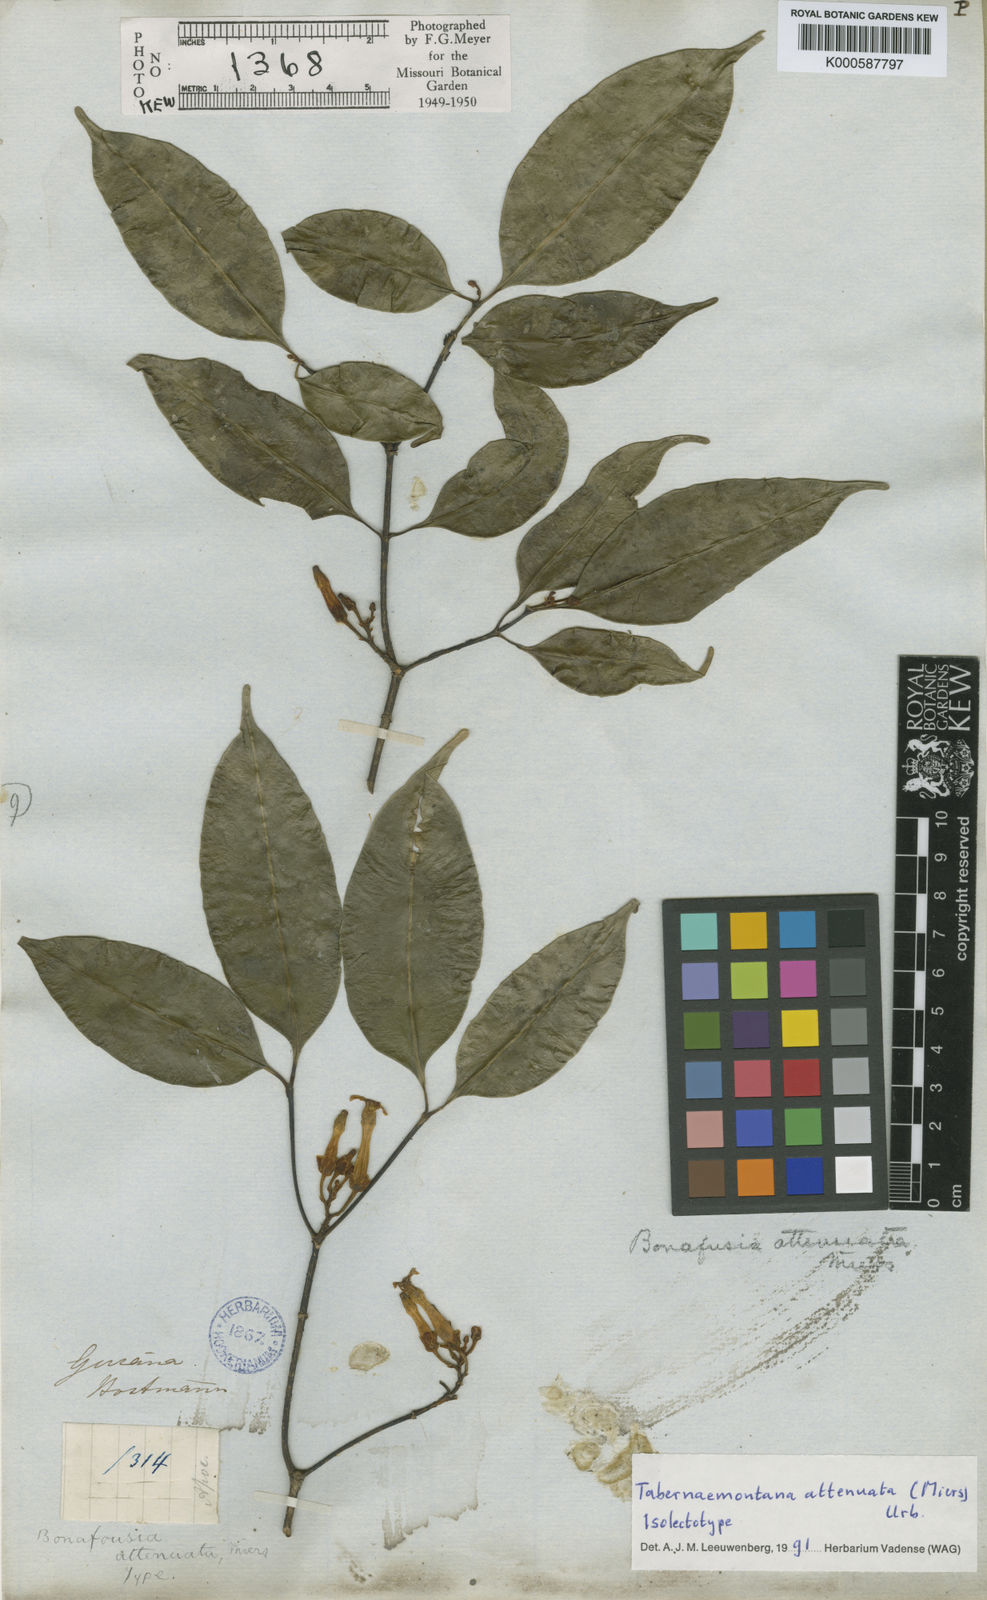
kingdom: Plantae
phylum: Tracheophyta
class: Magnoliopsida
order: Gentianales
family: Apocynaceae
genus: Tabernaemontana
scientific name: Tabernaemontana attenuata
